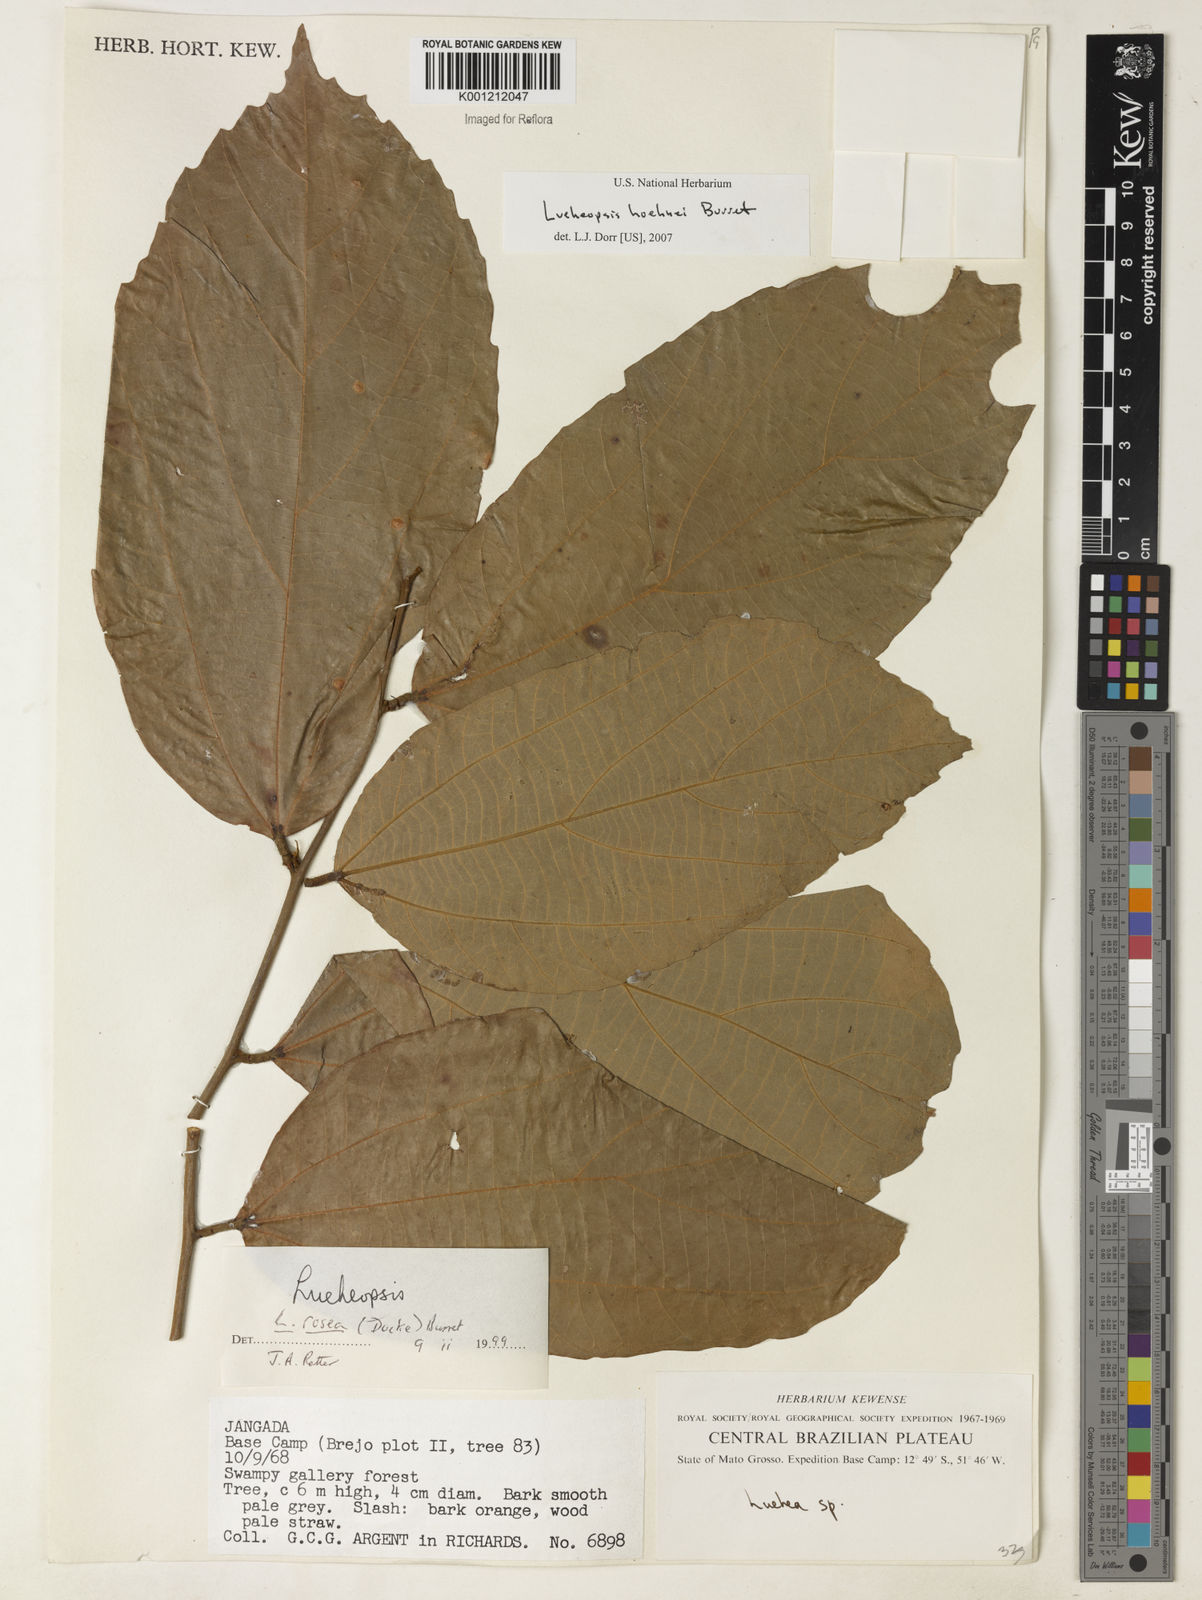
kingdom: Plantae
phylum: Tracheophyta
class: Magnoliopsida
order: Malvales
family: Malvaceae
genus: Lueheopsis
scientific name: Lueheopsis hoehnei
